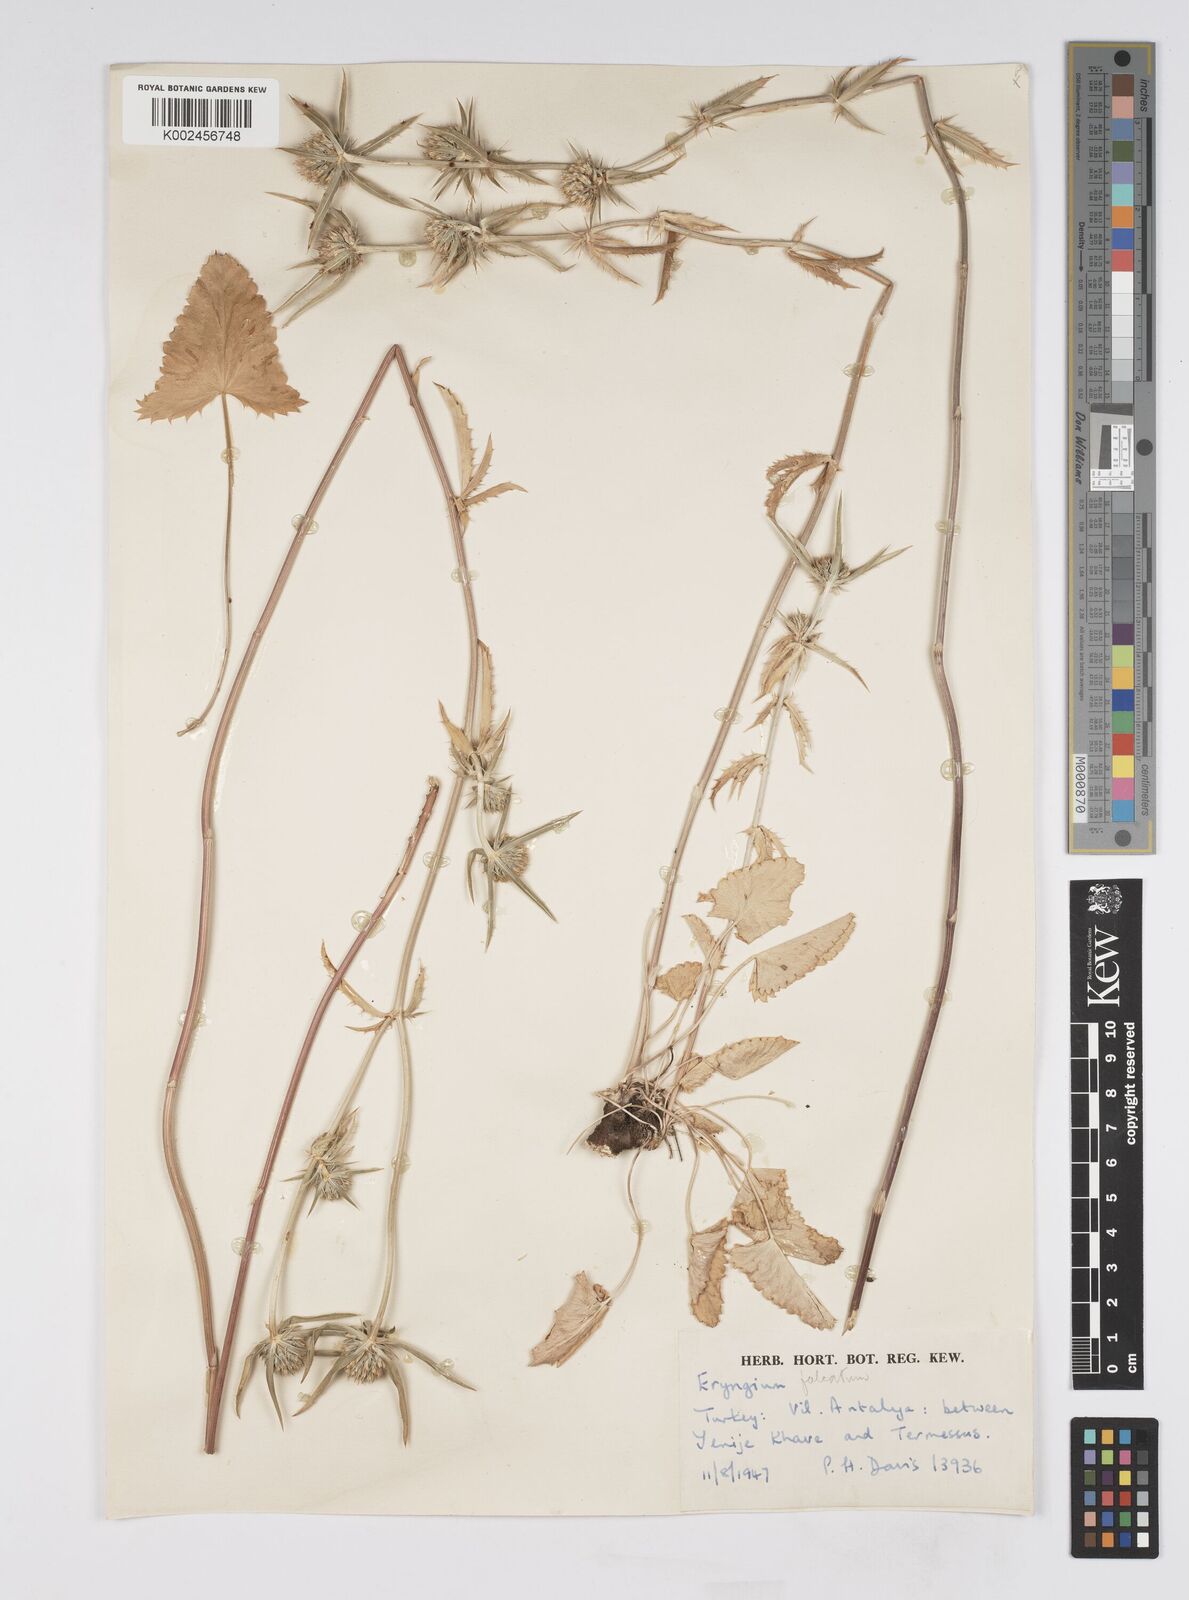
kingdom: Plantae
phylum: Tracheophyta
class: Magnoliopsida
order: Apiales
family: Apiaceae
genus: Eryngium
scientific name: Eryngium falcatum
